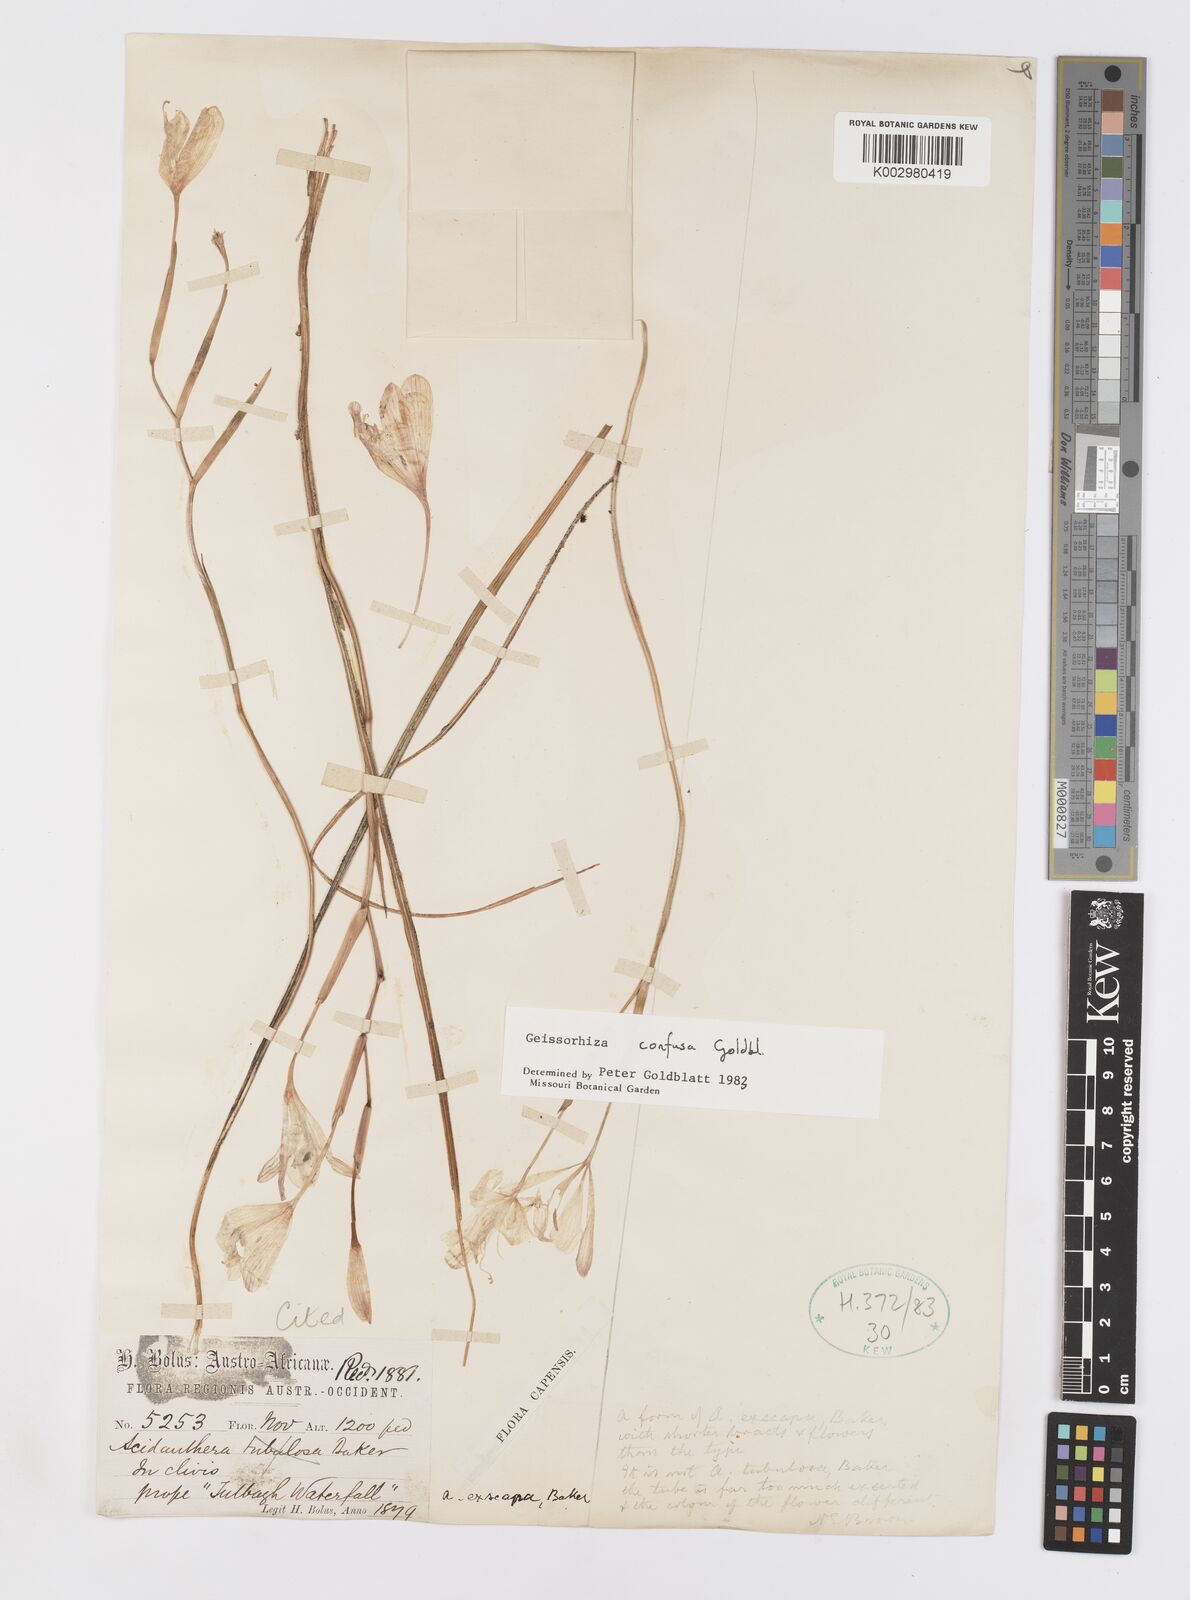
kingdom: Plantae
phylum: Tracheophyta
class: Liliopsida
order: Asparagales
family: Iridaceae
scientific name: Iridaceae
